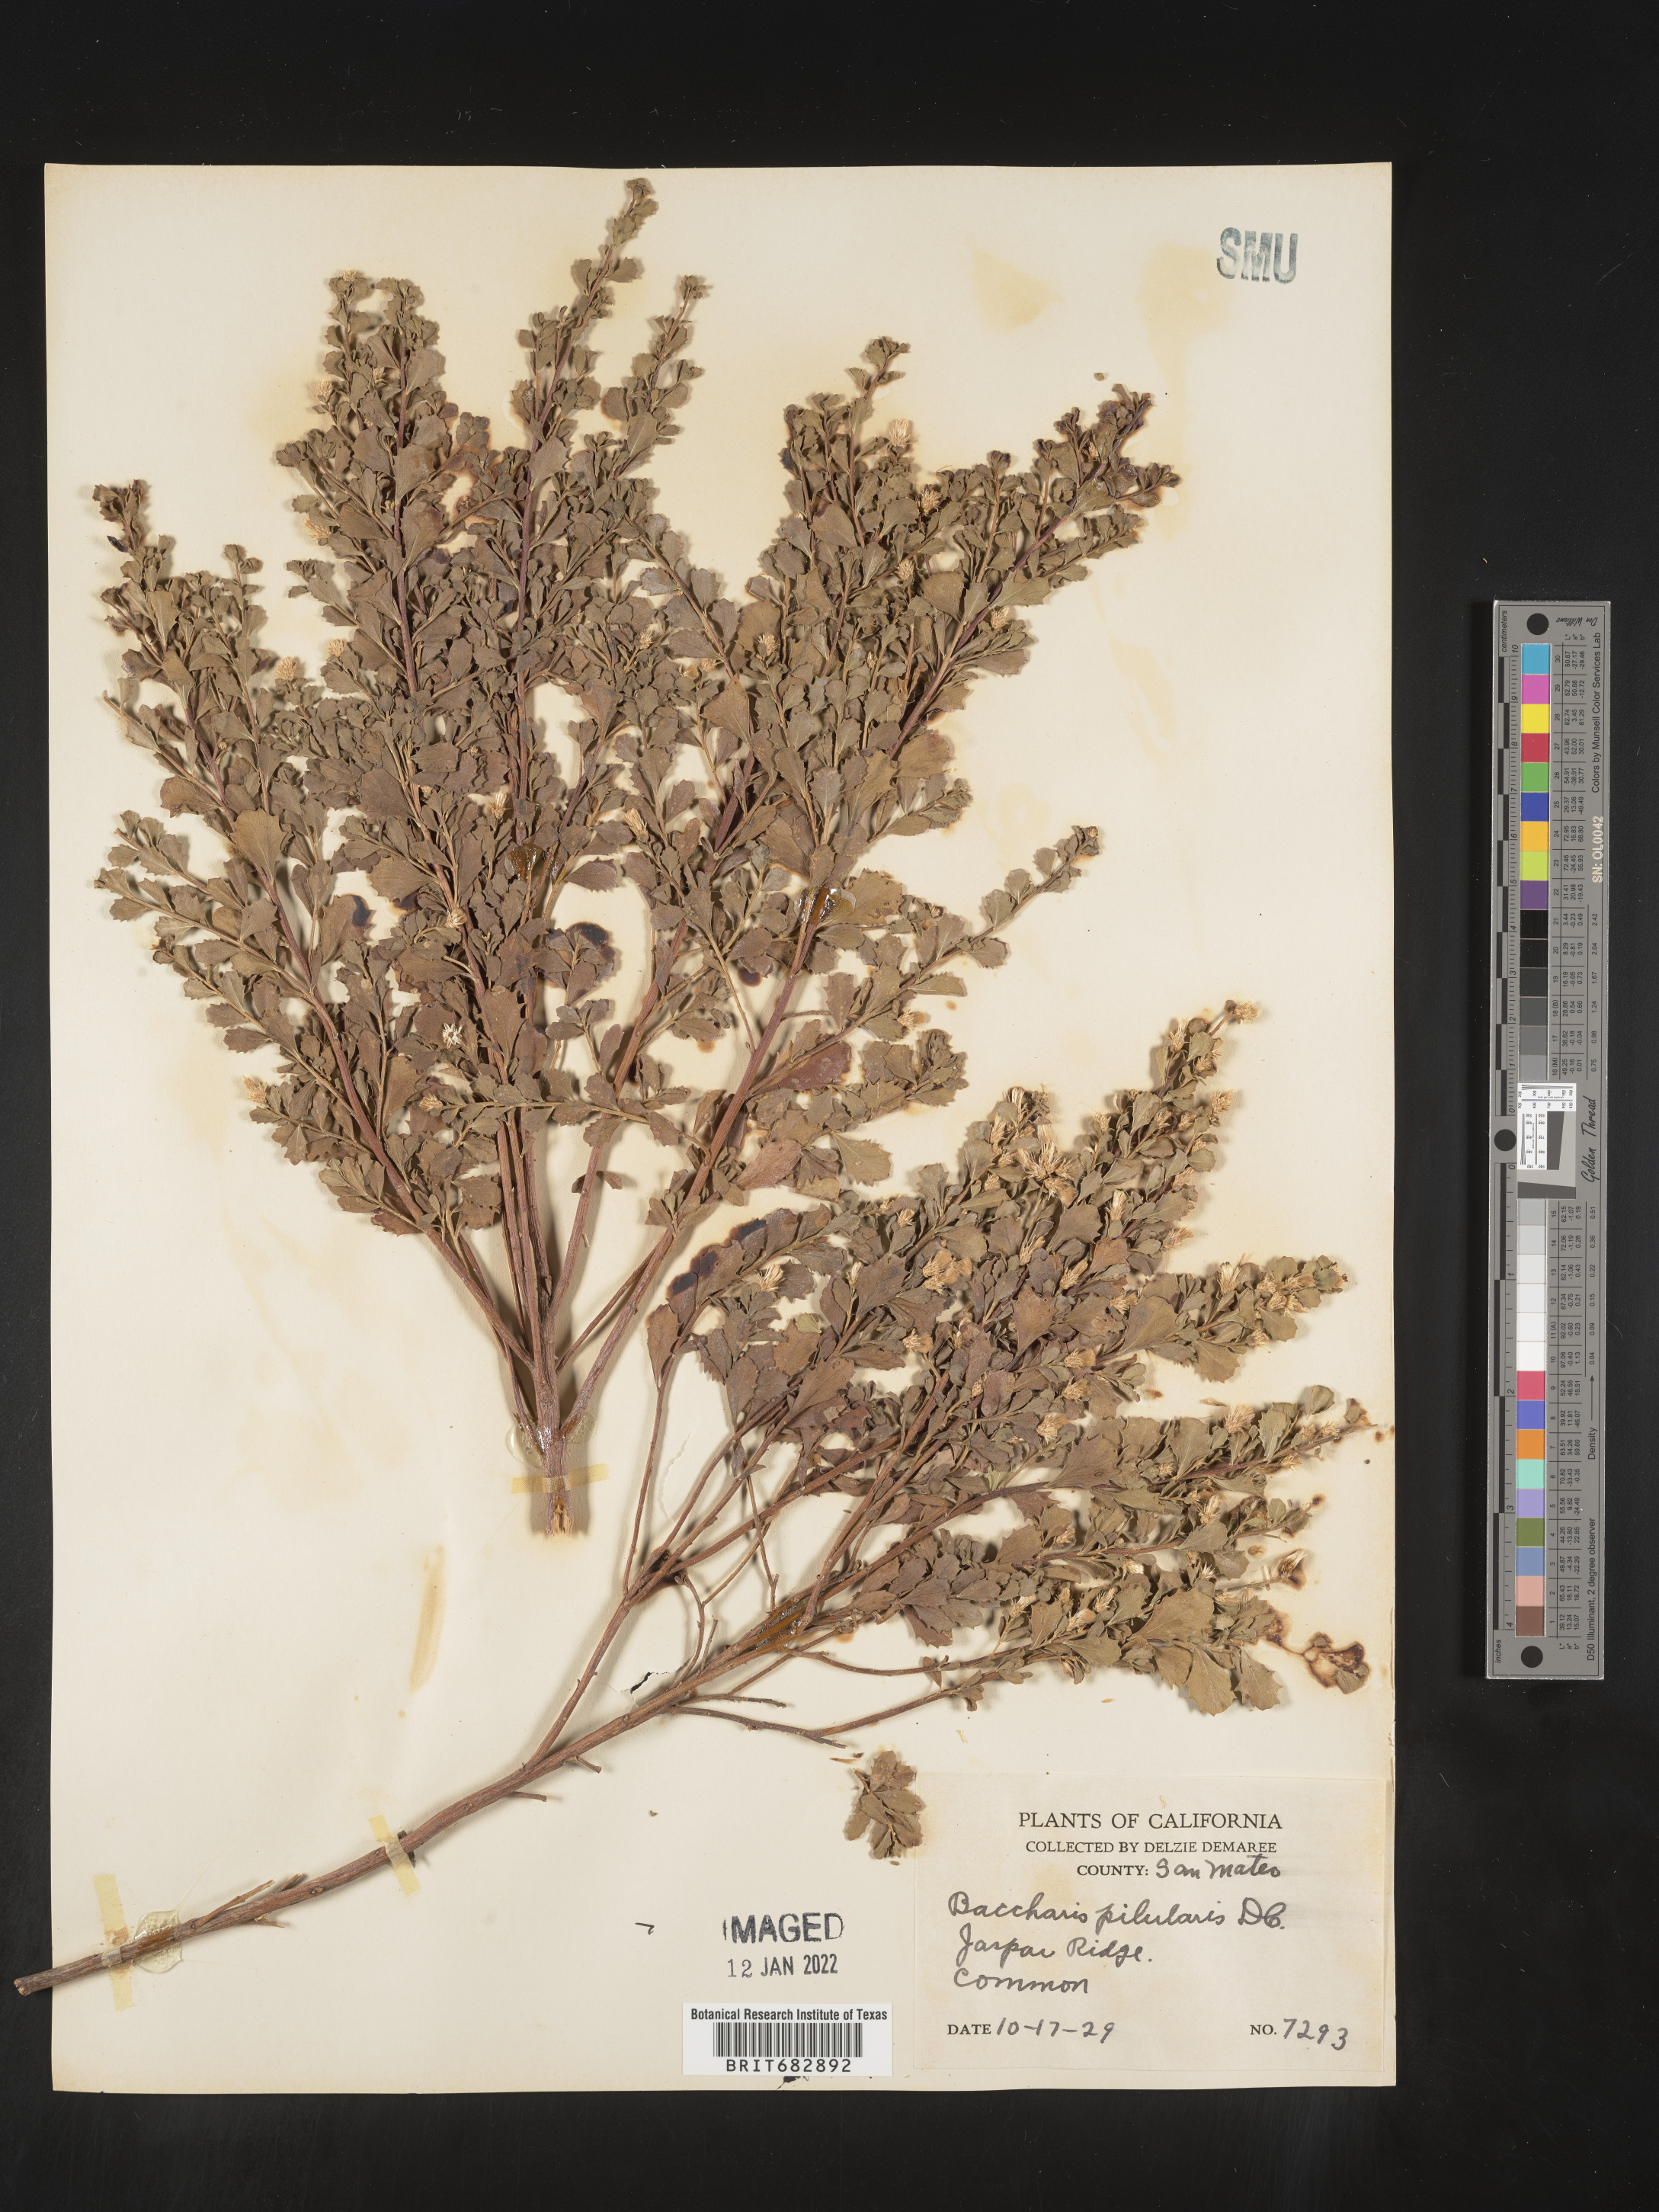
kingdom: Plantae
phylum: Tracheophyta
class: Magnoliopsida
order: Asterales
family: Asteraceae
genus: Baccharis
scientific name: Baccharis pilularis
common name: Coyotebrush
